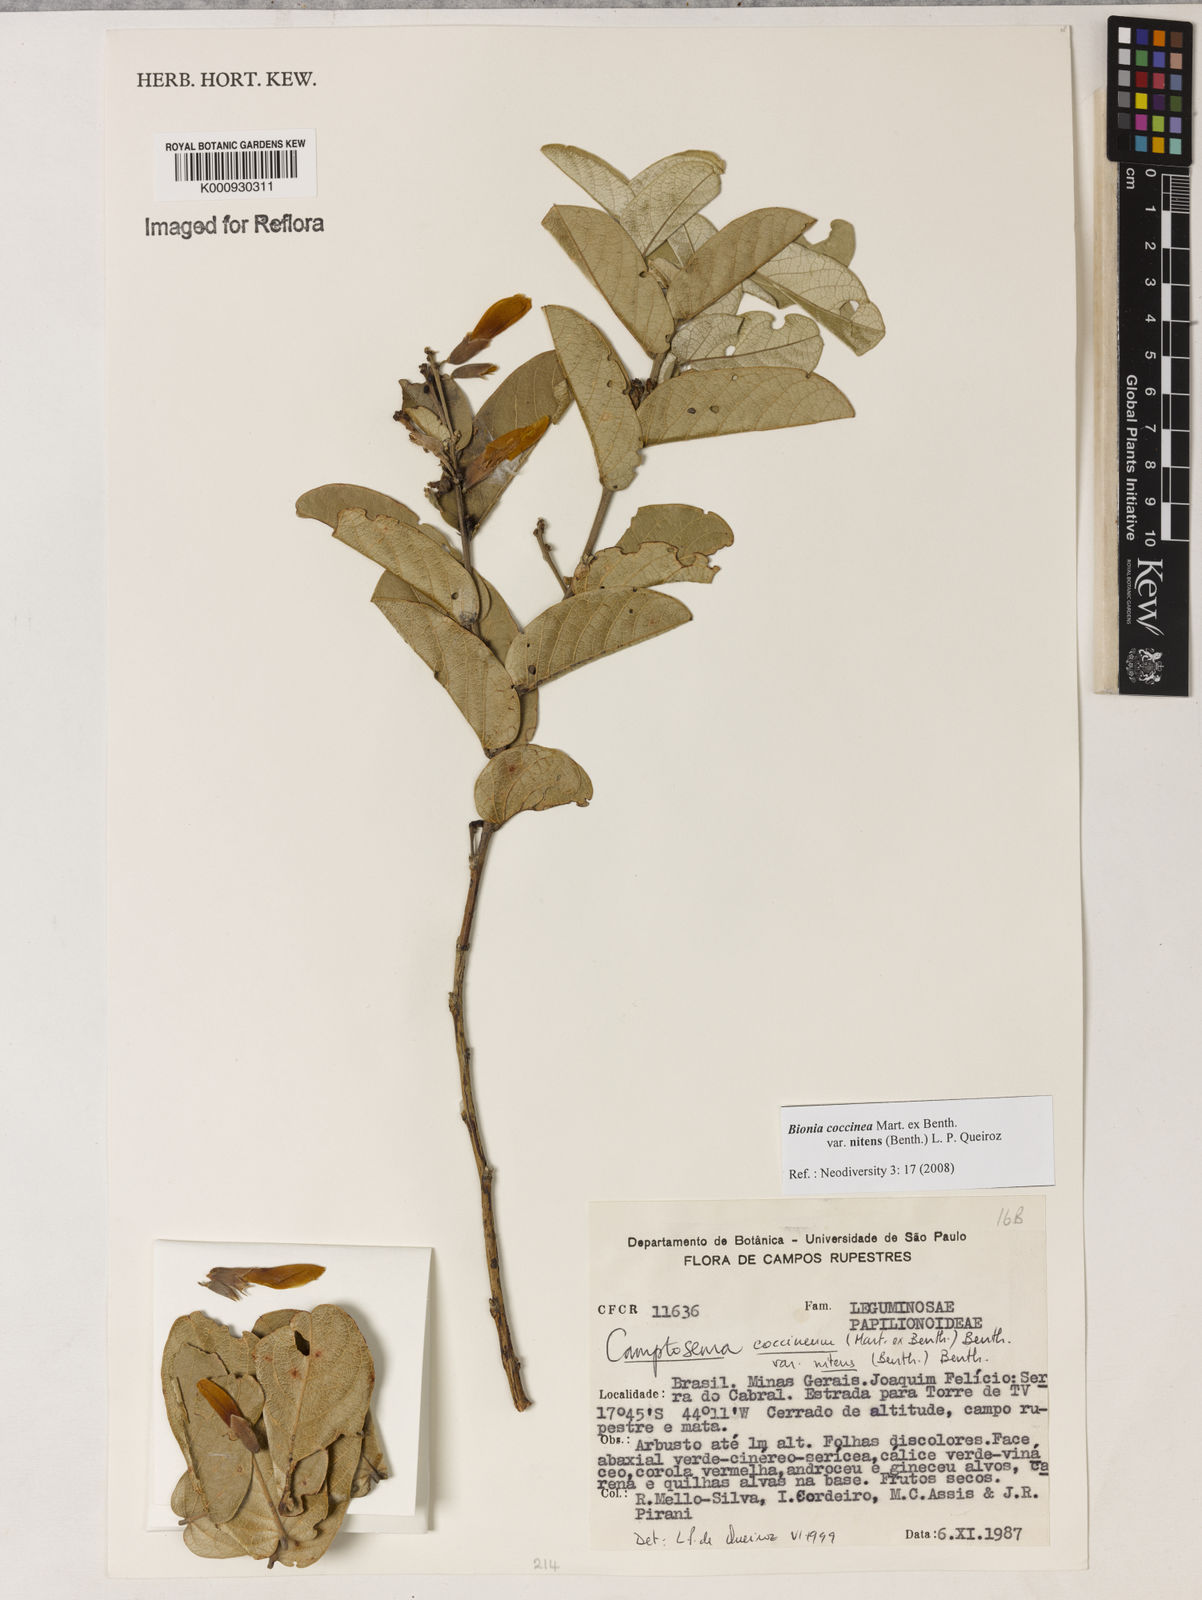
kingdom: Plantae
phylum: Tracheophyta
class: Magnoliopsida
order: Fabales
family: Fabaceae
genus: Camptosema
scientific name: Camptosema coccineum
